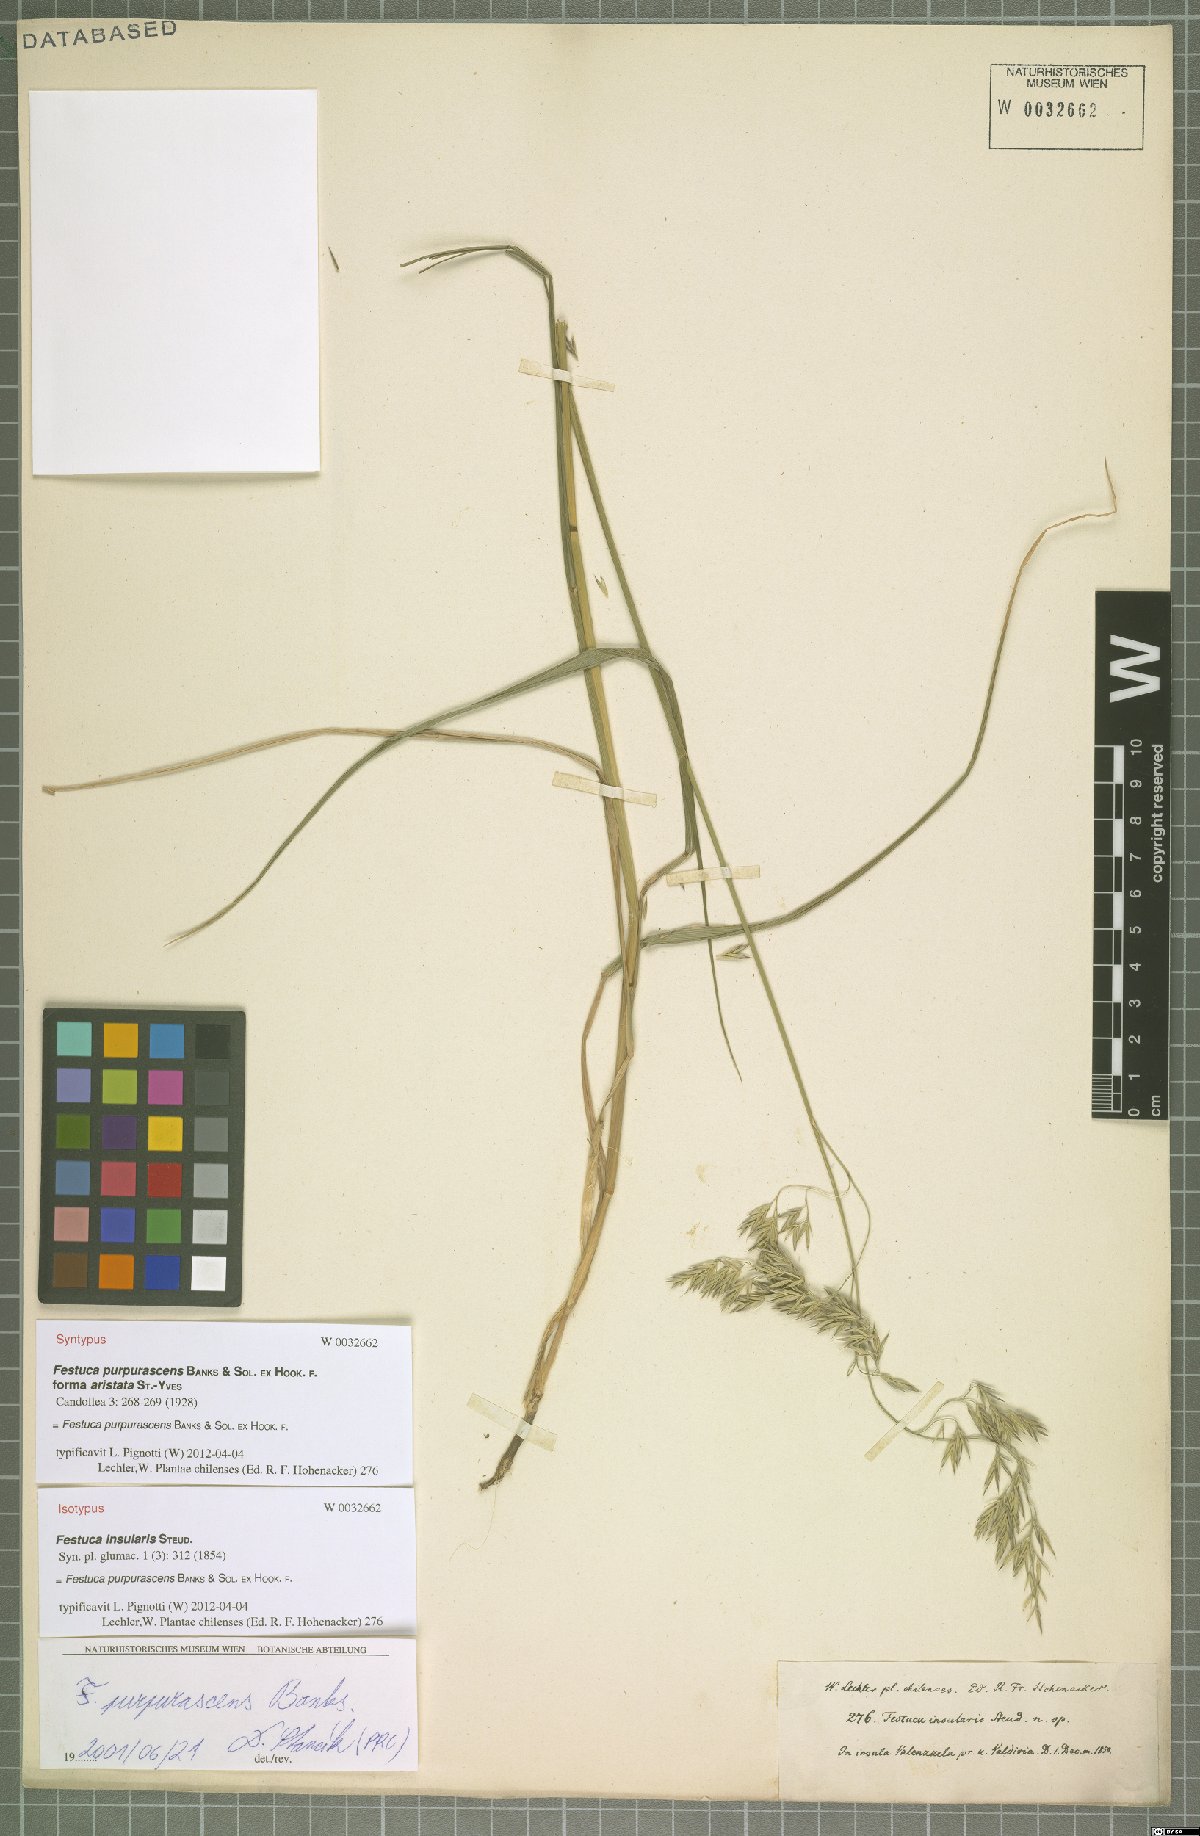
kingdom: Plantae
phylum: Tracheophyta
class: Liliopsida
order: Poales
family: Poaceae
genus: Festuca
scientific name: Festuca purpurascens
